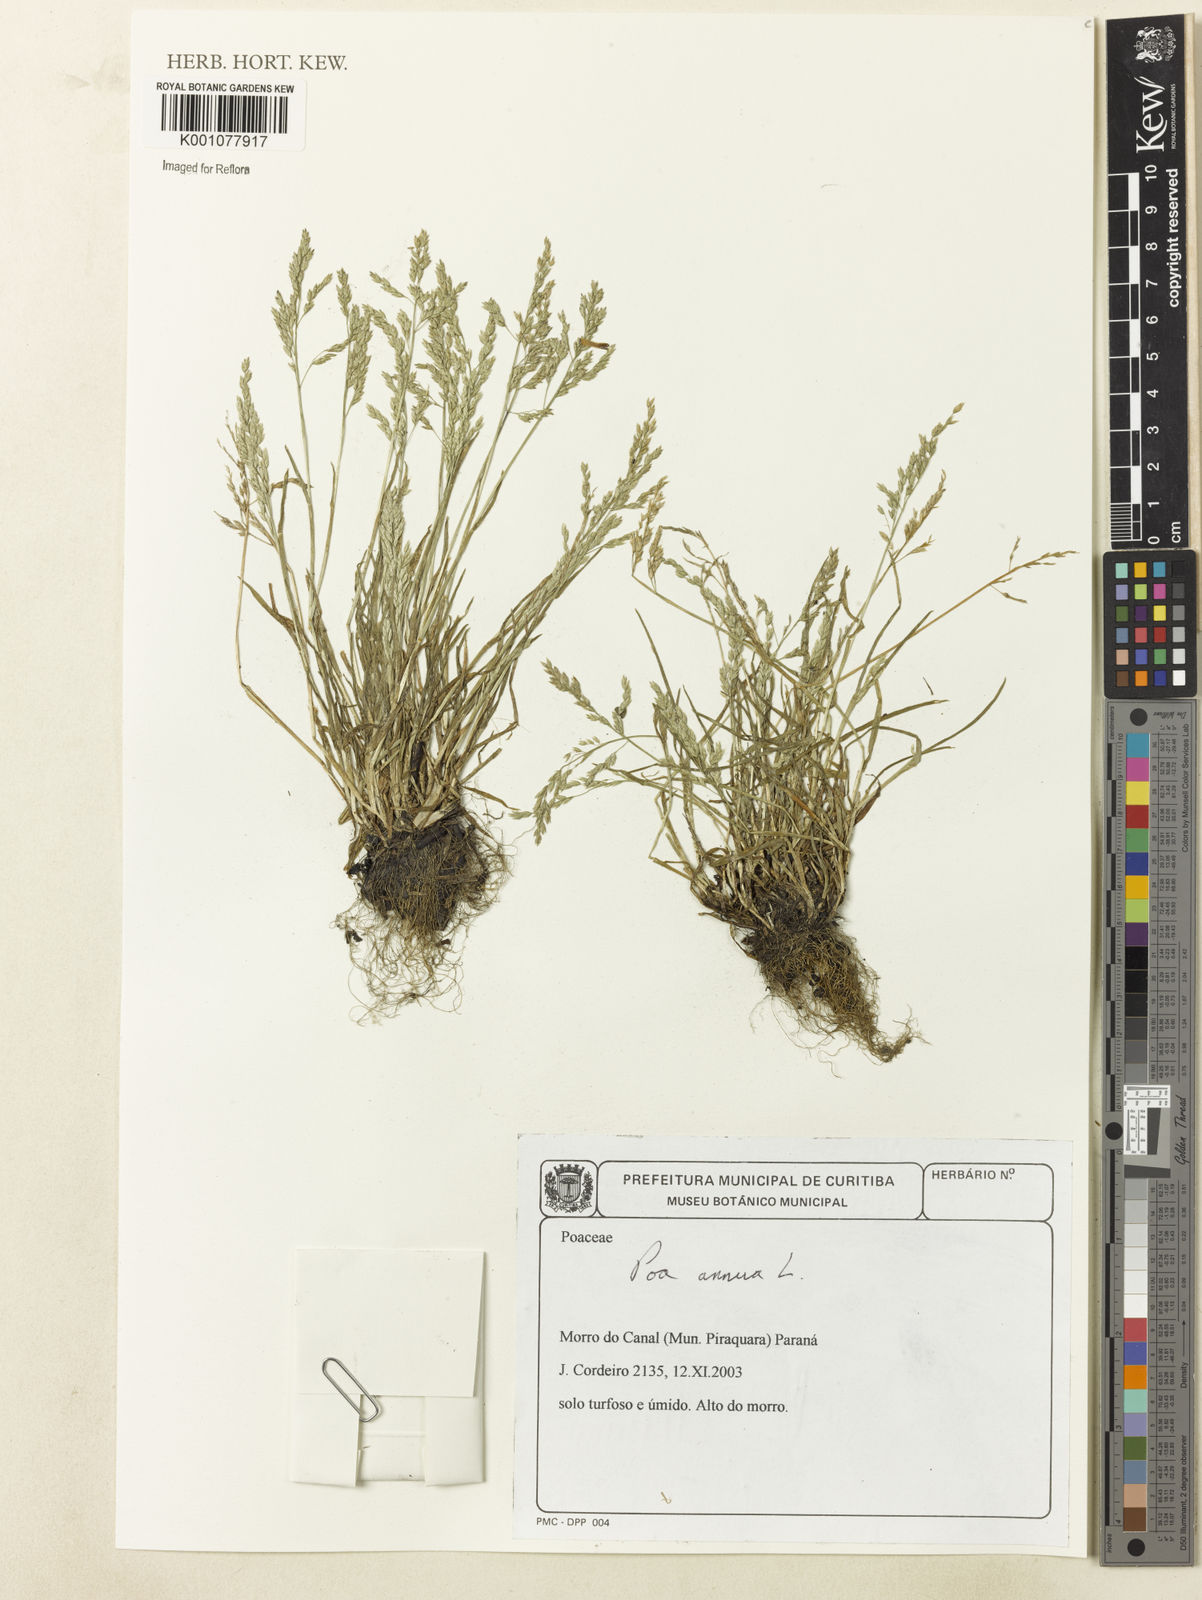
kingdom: Plantae
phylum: Tracheophyta
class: Liliopsida
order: Poales
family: Poaceae
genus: Poa
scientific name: Poa annua
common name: Annual bluegrass
